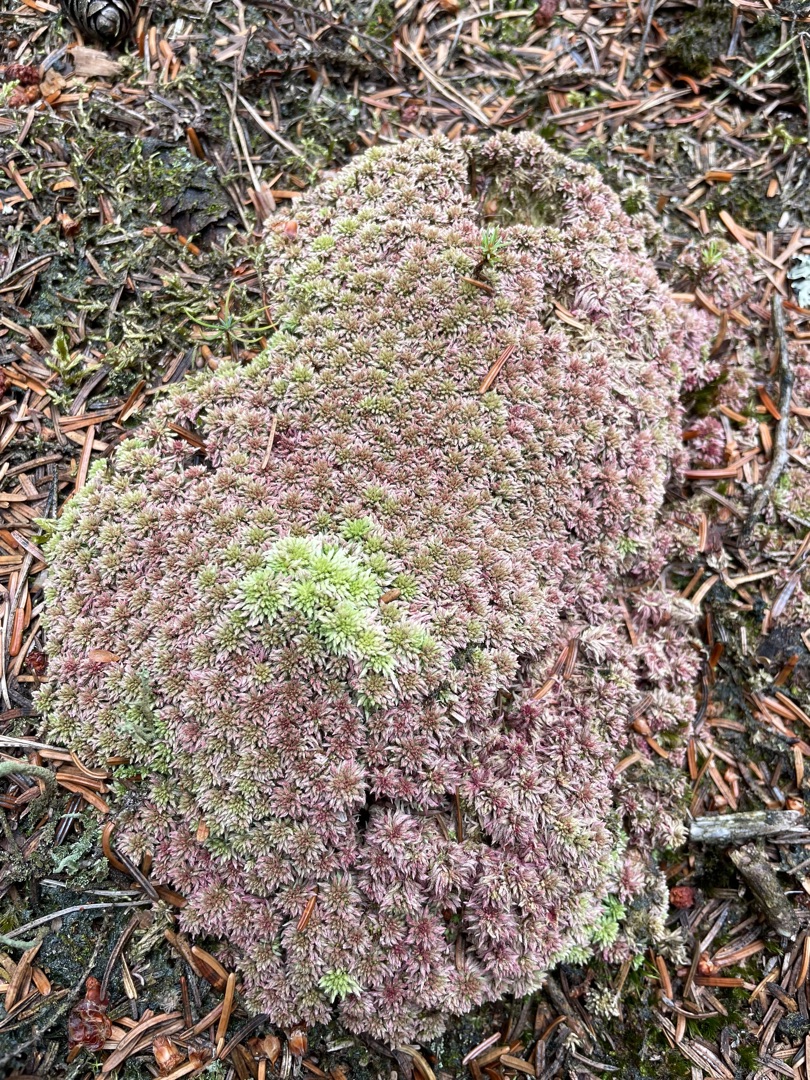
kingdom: Plantae
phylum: Bryophyta
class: Sphagnopsida
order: Sphagnales
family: Sphagnaceae
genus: Sphagnum
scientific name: Sphagnum
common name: Tørvemosslægten
